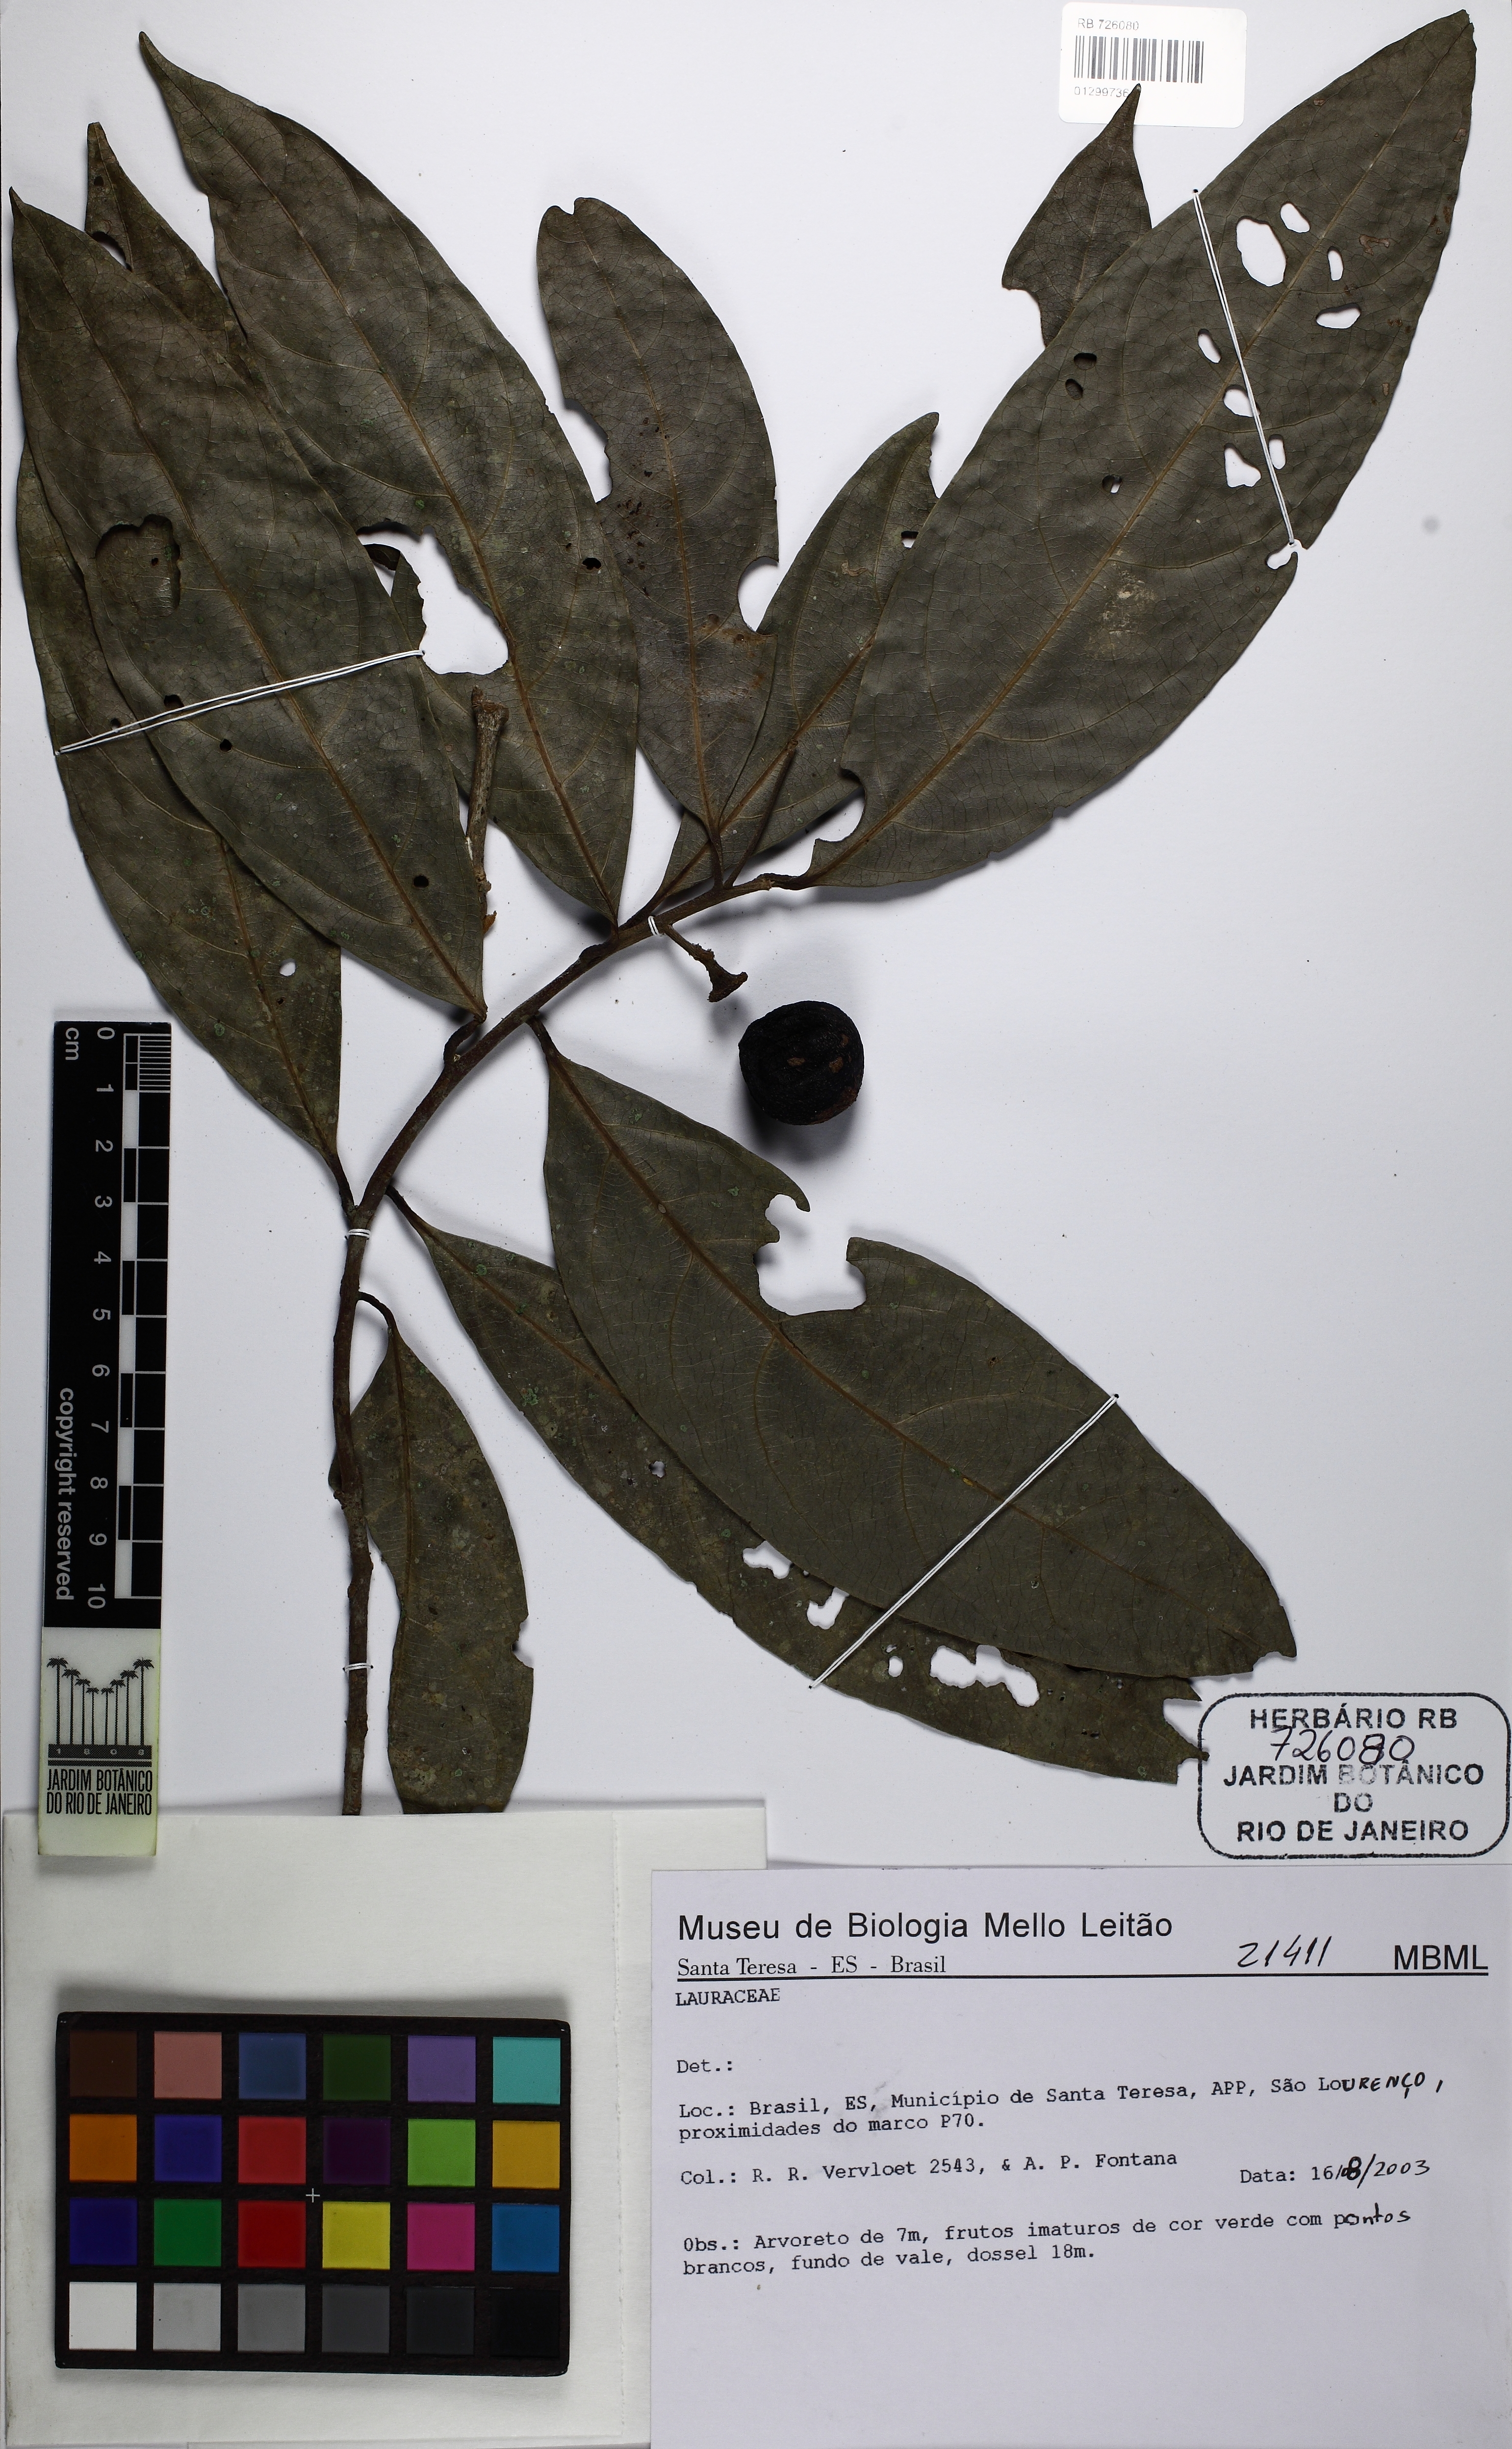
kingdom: Plantae
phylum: Tracheophyta
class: Magnoliopsida
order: Laurales
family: Lauraceae
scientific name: Lauraceae
